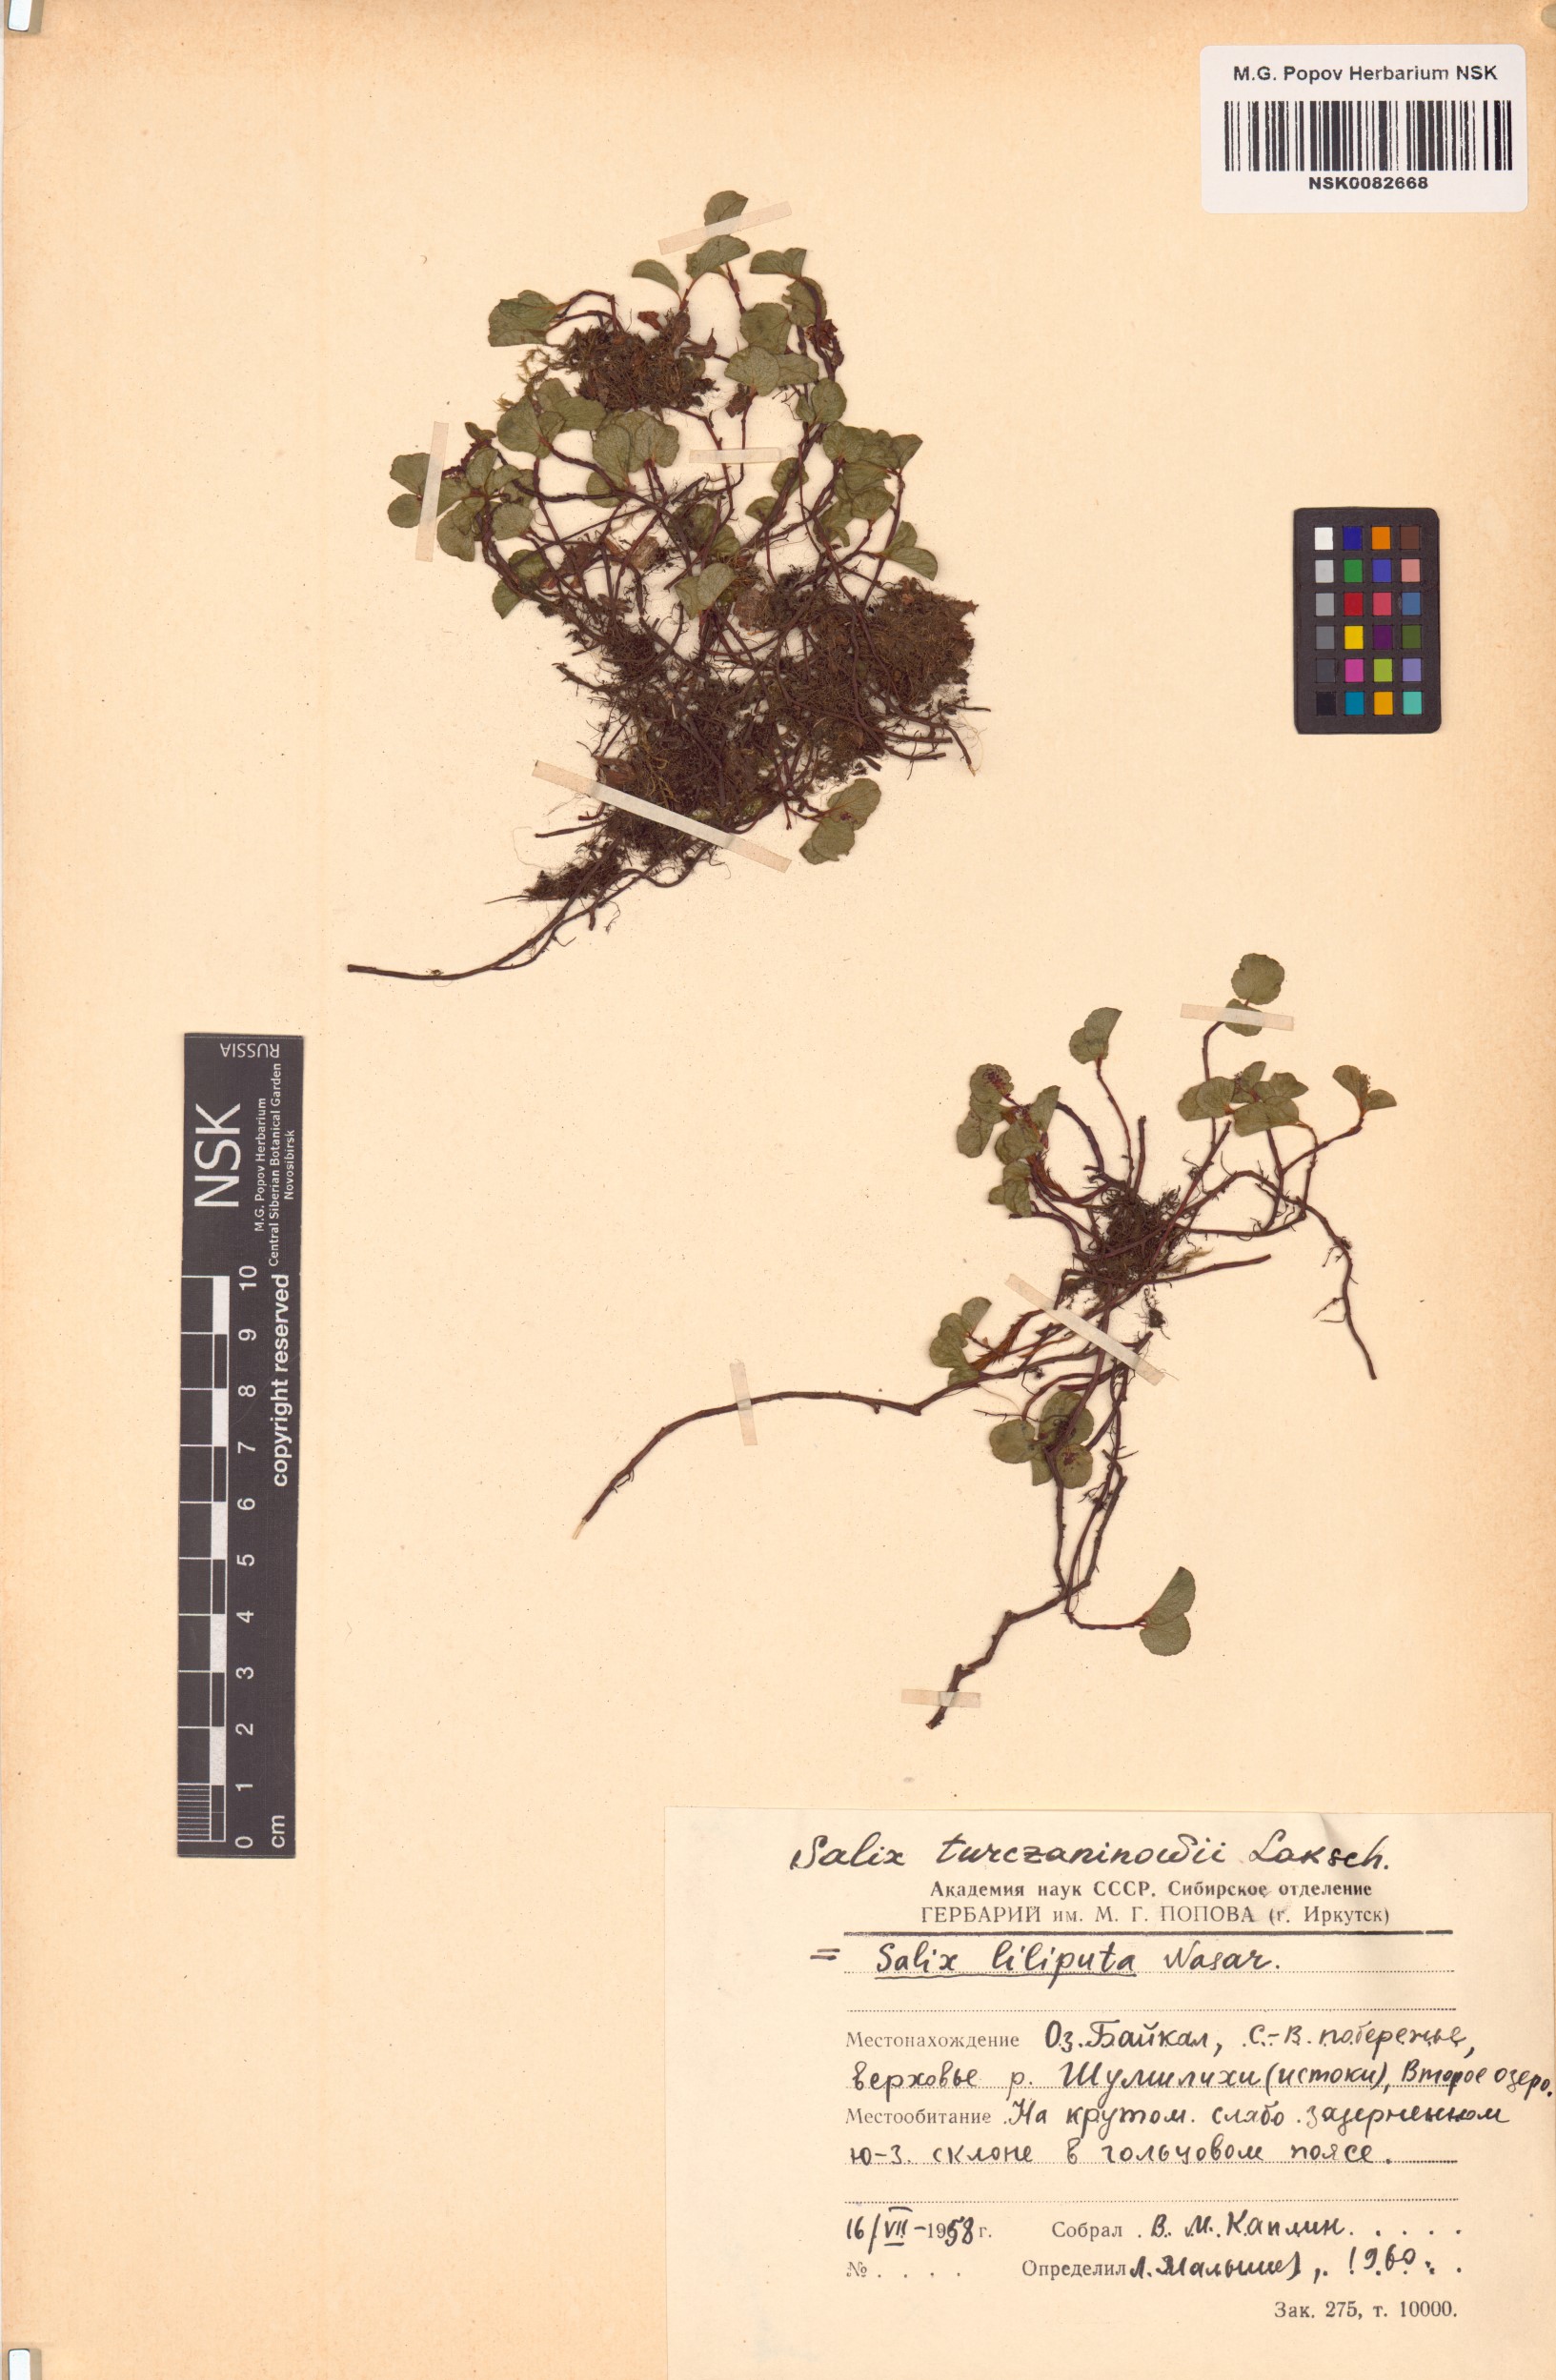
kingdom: Plantae
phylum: Tracheophyta
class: Magnoliopsida
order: Malpighiales
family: Salicaceae
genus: Salix
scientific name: Salix turczaninowii
